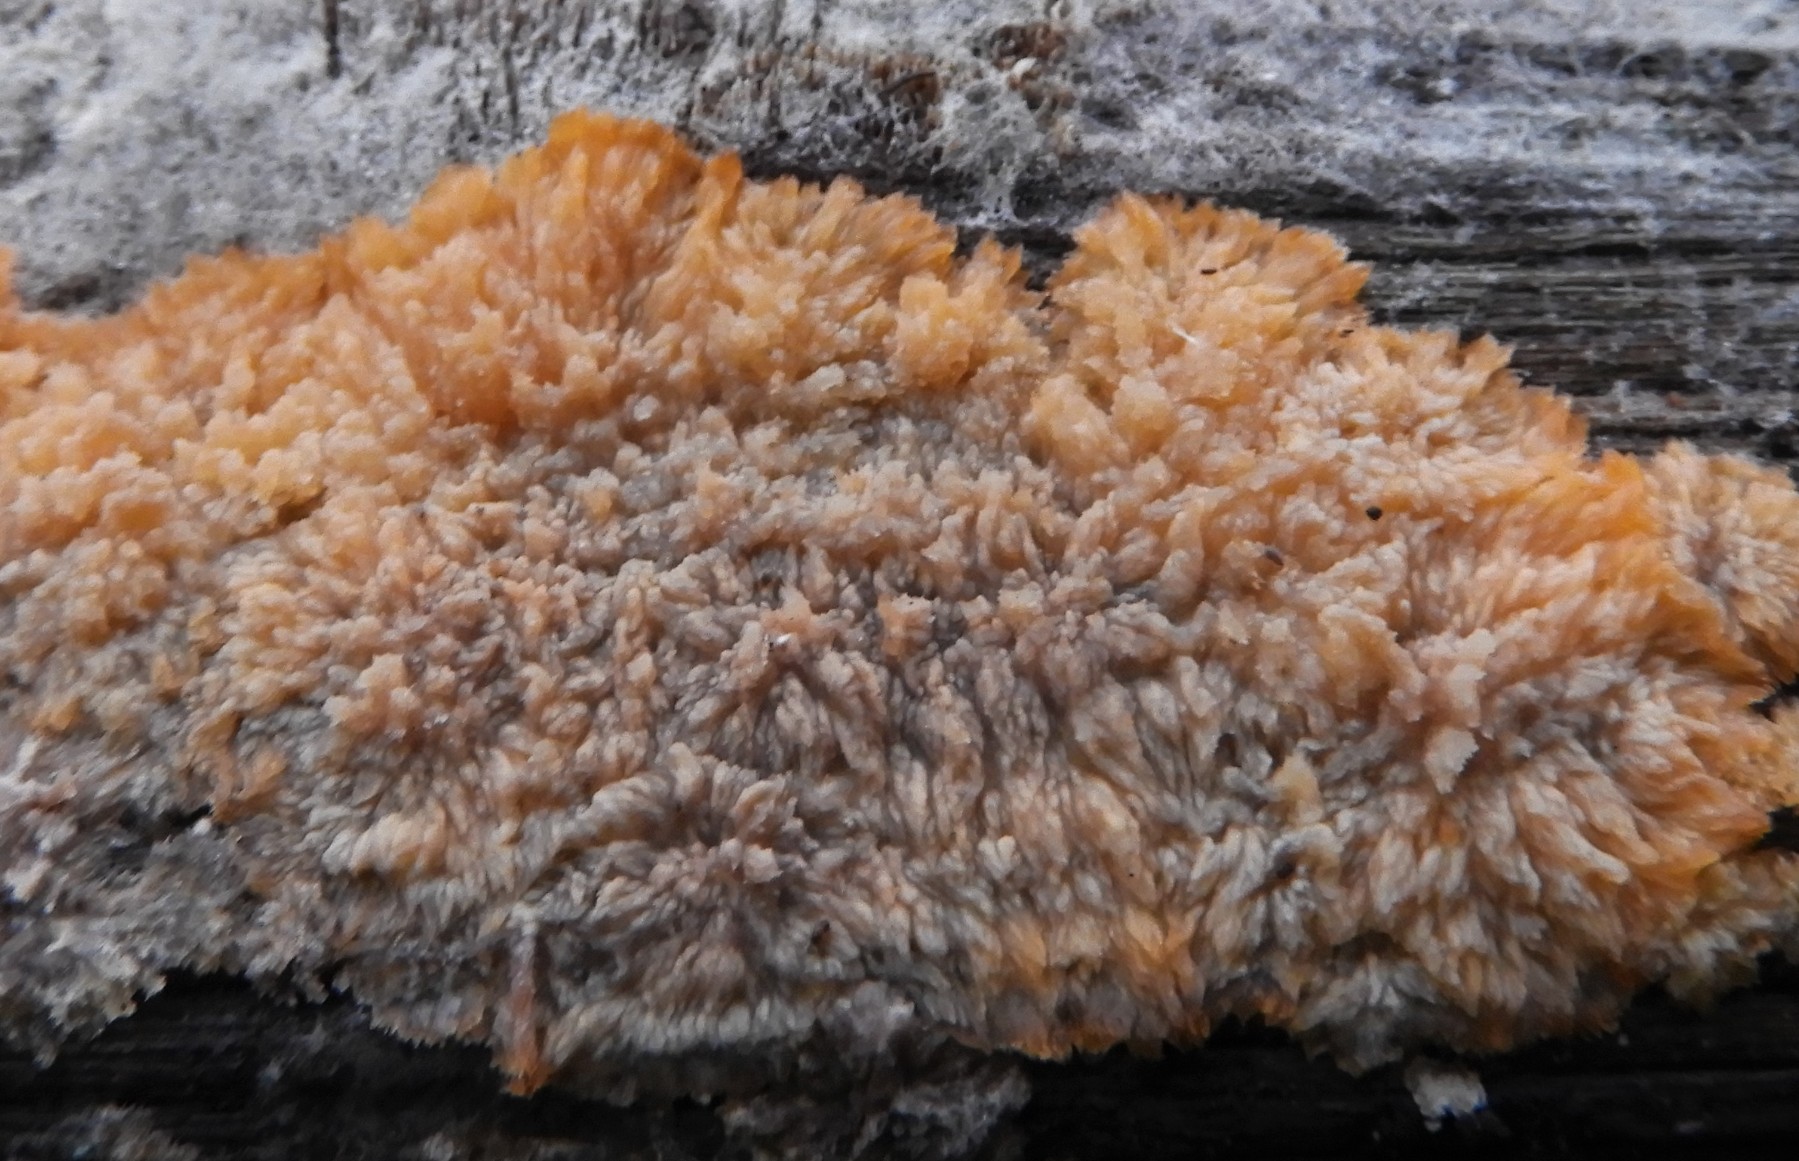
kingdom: Fungi
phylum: Basidiomycota
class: Agaricomycetes
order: Polyporales
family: Meruliaceae
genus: Phlebia
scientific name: Phlebia radiata
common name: stråle-åresvamp
